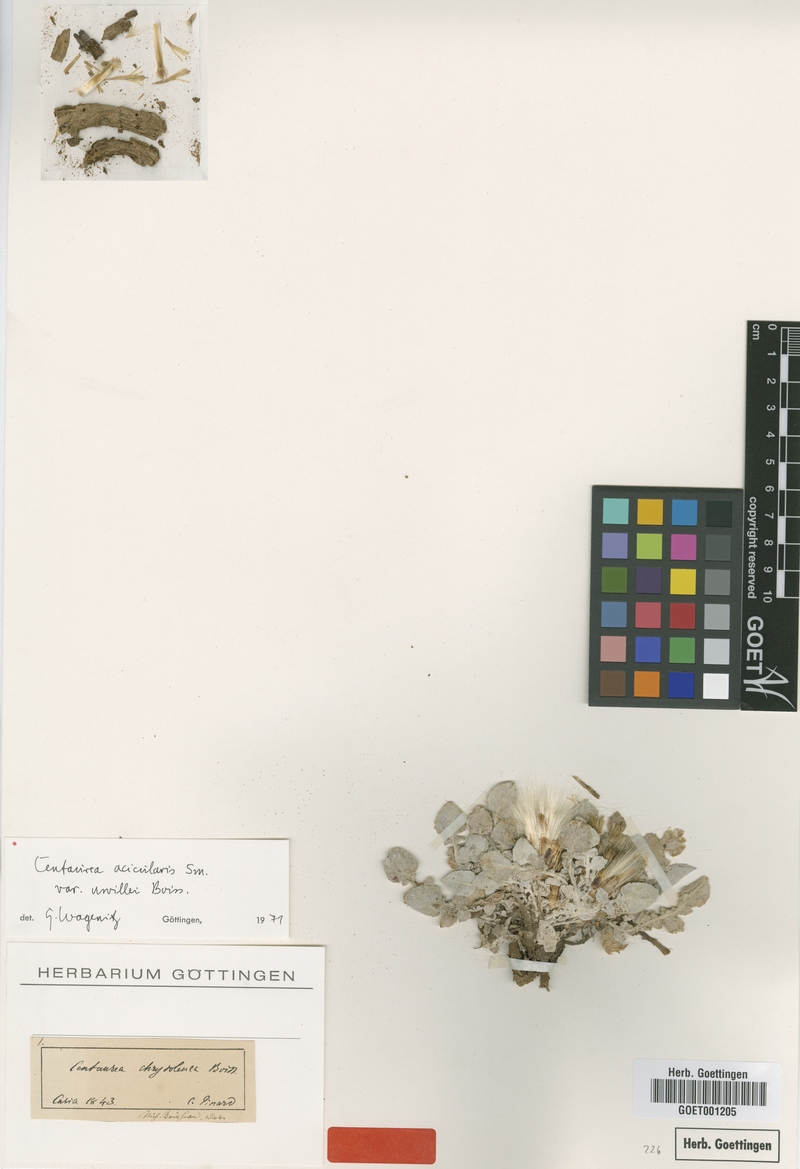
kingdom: Plantae
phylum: Tracheophyta
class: Magnoliopsida
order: Asterales
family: Asteraceae
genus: Centaurea
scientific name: Centaurea acicularis
